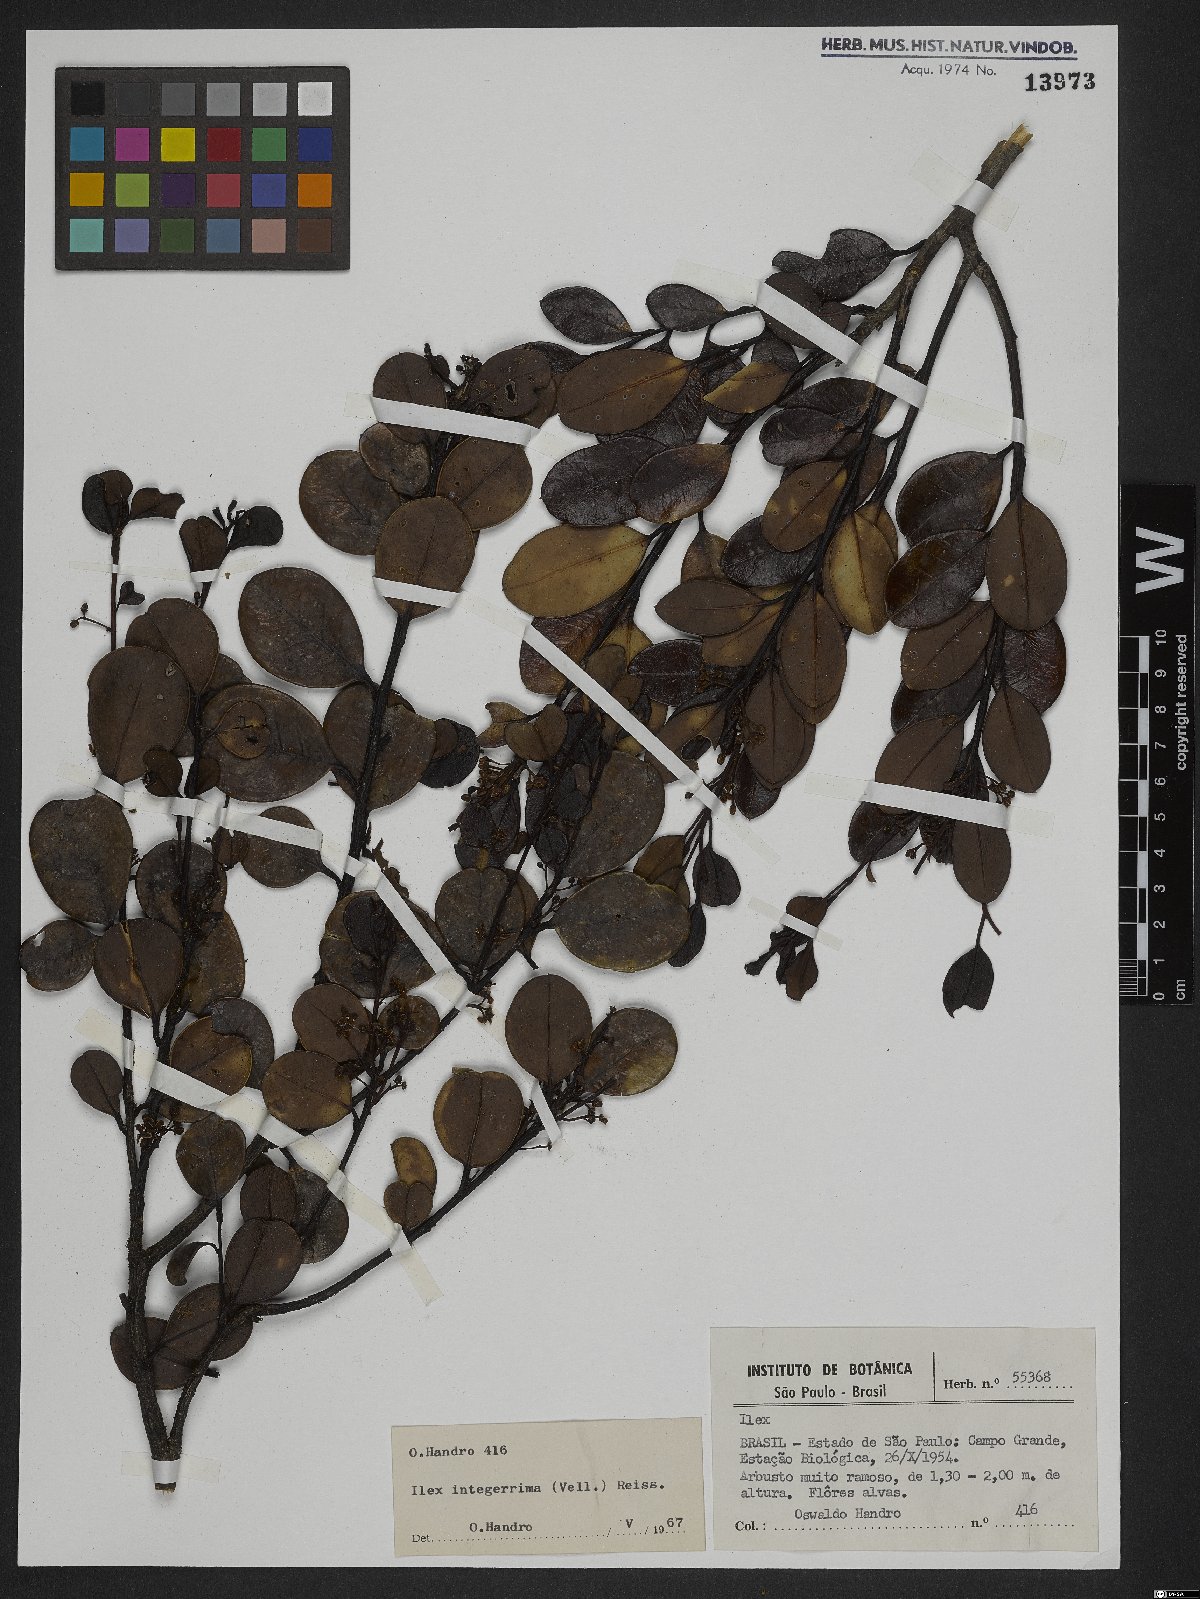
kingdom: Plantae
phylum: Tracheophyta
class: Magnoliopsida
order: Aquifoliales
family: Aquifoliaceae
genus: Ilex
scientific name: Ilex integerrima
